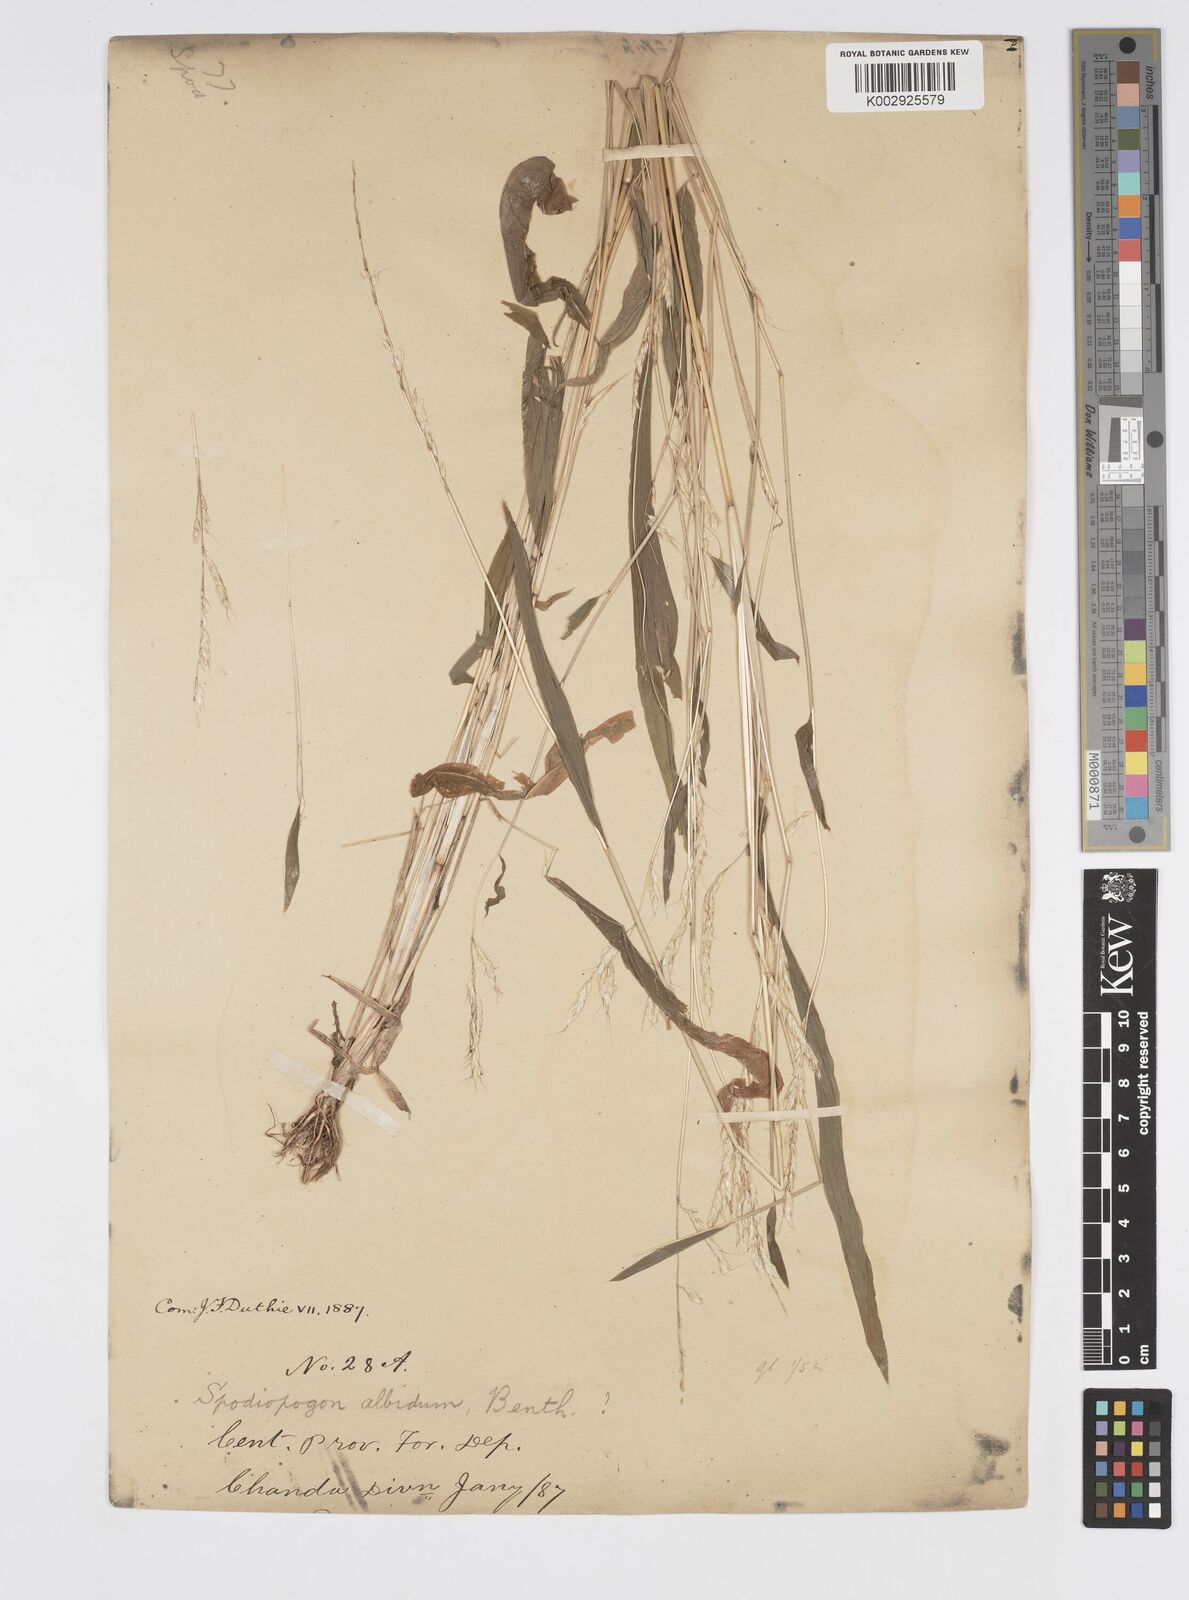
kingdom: Plantae
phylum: Tracheophyta
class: Liliopsida
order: Poales
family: Poaceae
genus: Spodiopogon
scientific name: Spodiopogon rhizophorus
